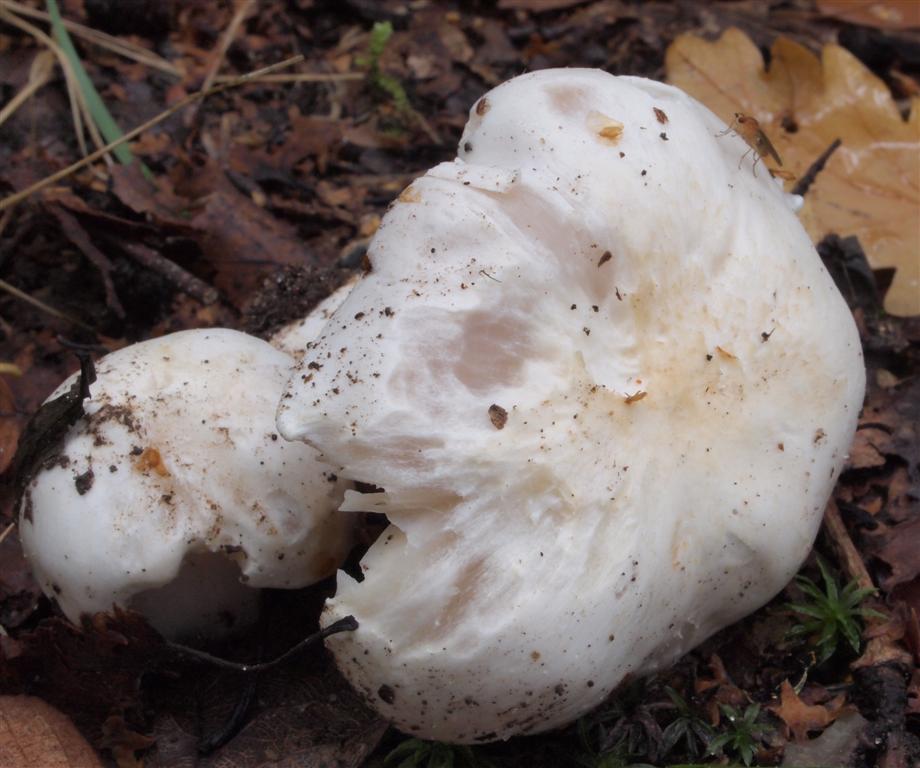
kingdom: Fungi
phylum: Basidiomycota
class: Agaricomycetes
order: Agaricales
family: Tricholomataceae
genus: Tricholoma
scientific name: Tricholoma columbetta
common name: silke-ridderhat
